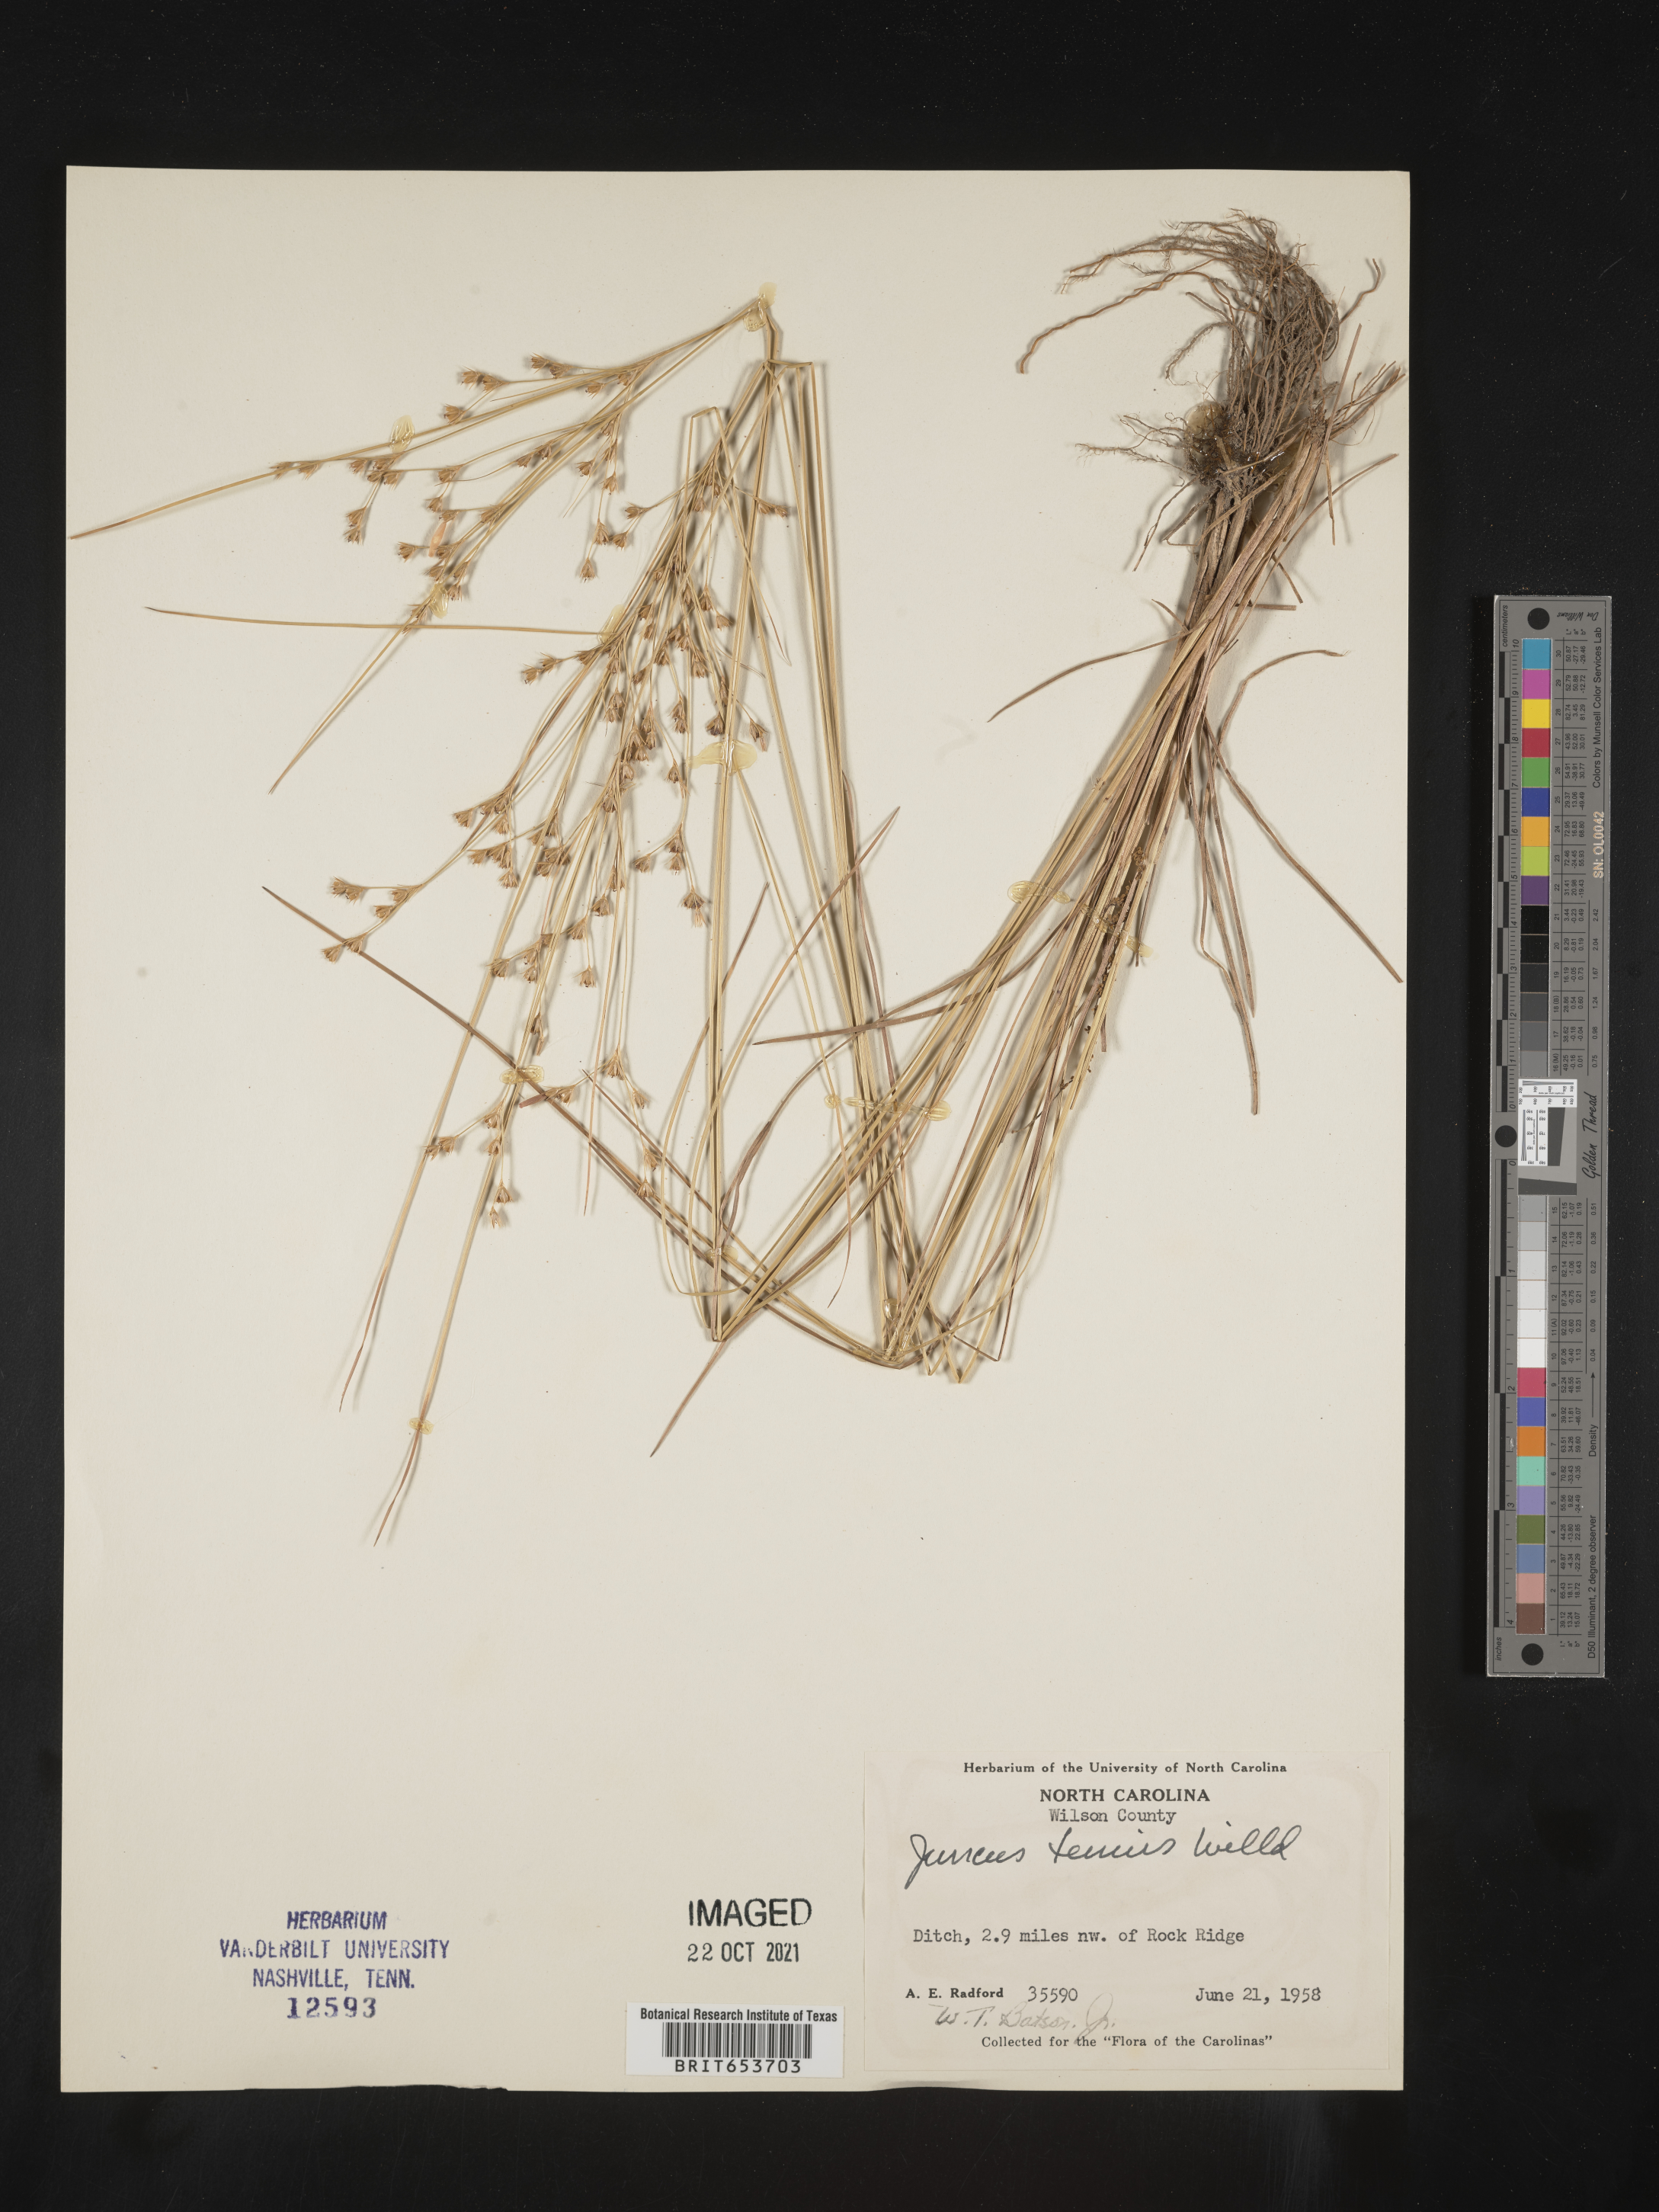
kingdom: Plantae
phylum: Tracheophyta
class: Liliopsida
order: Poales
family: Juncaceae
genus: Juncus
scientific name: Juncus tenuis
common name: Slender rush
